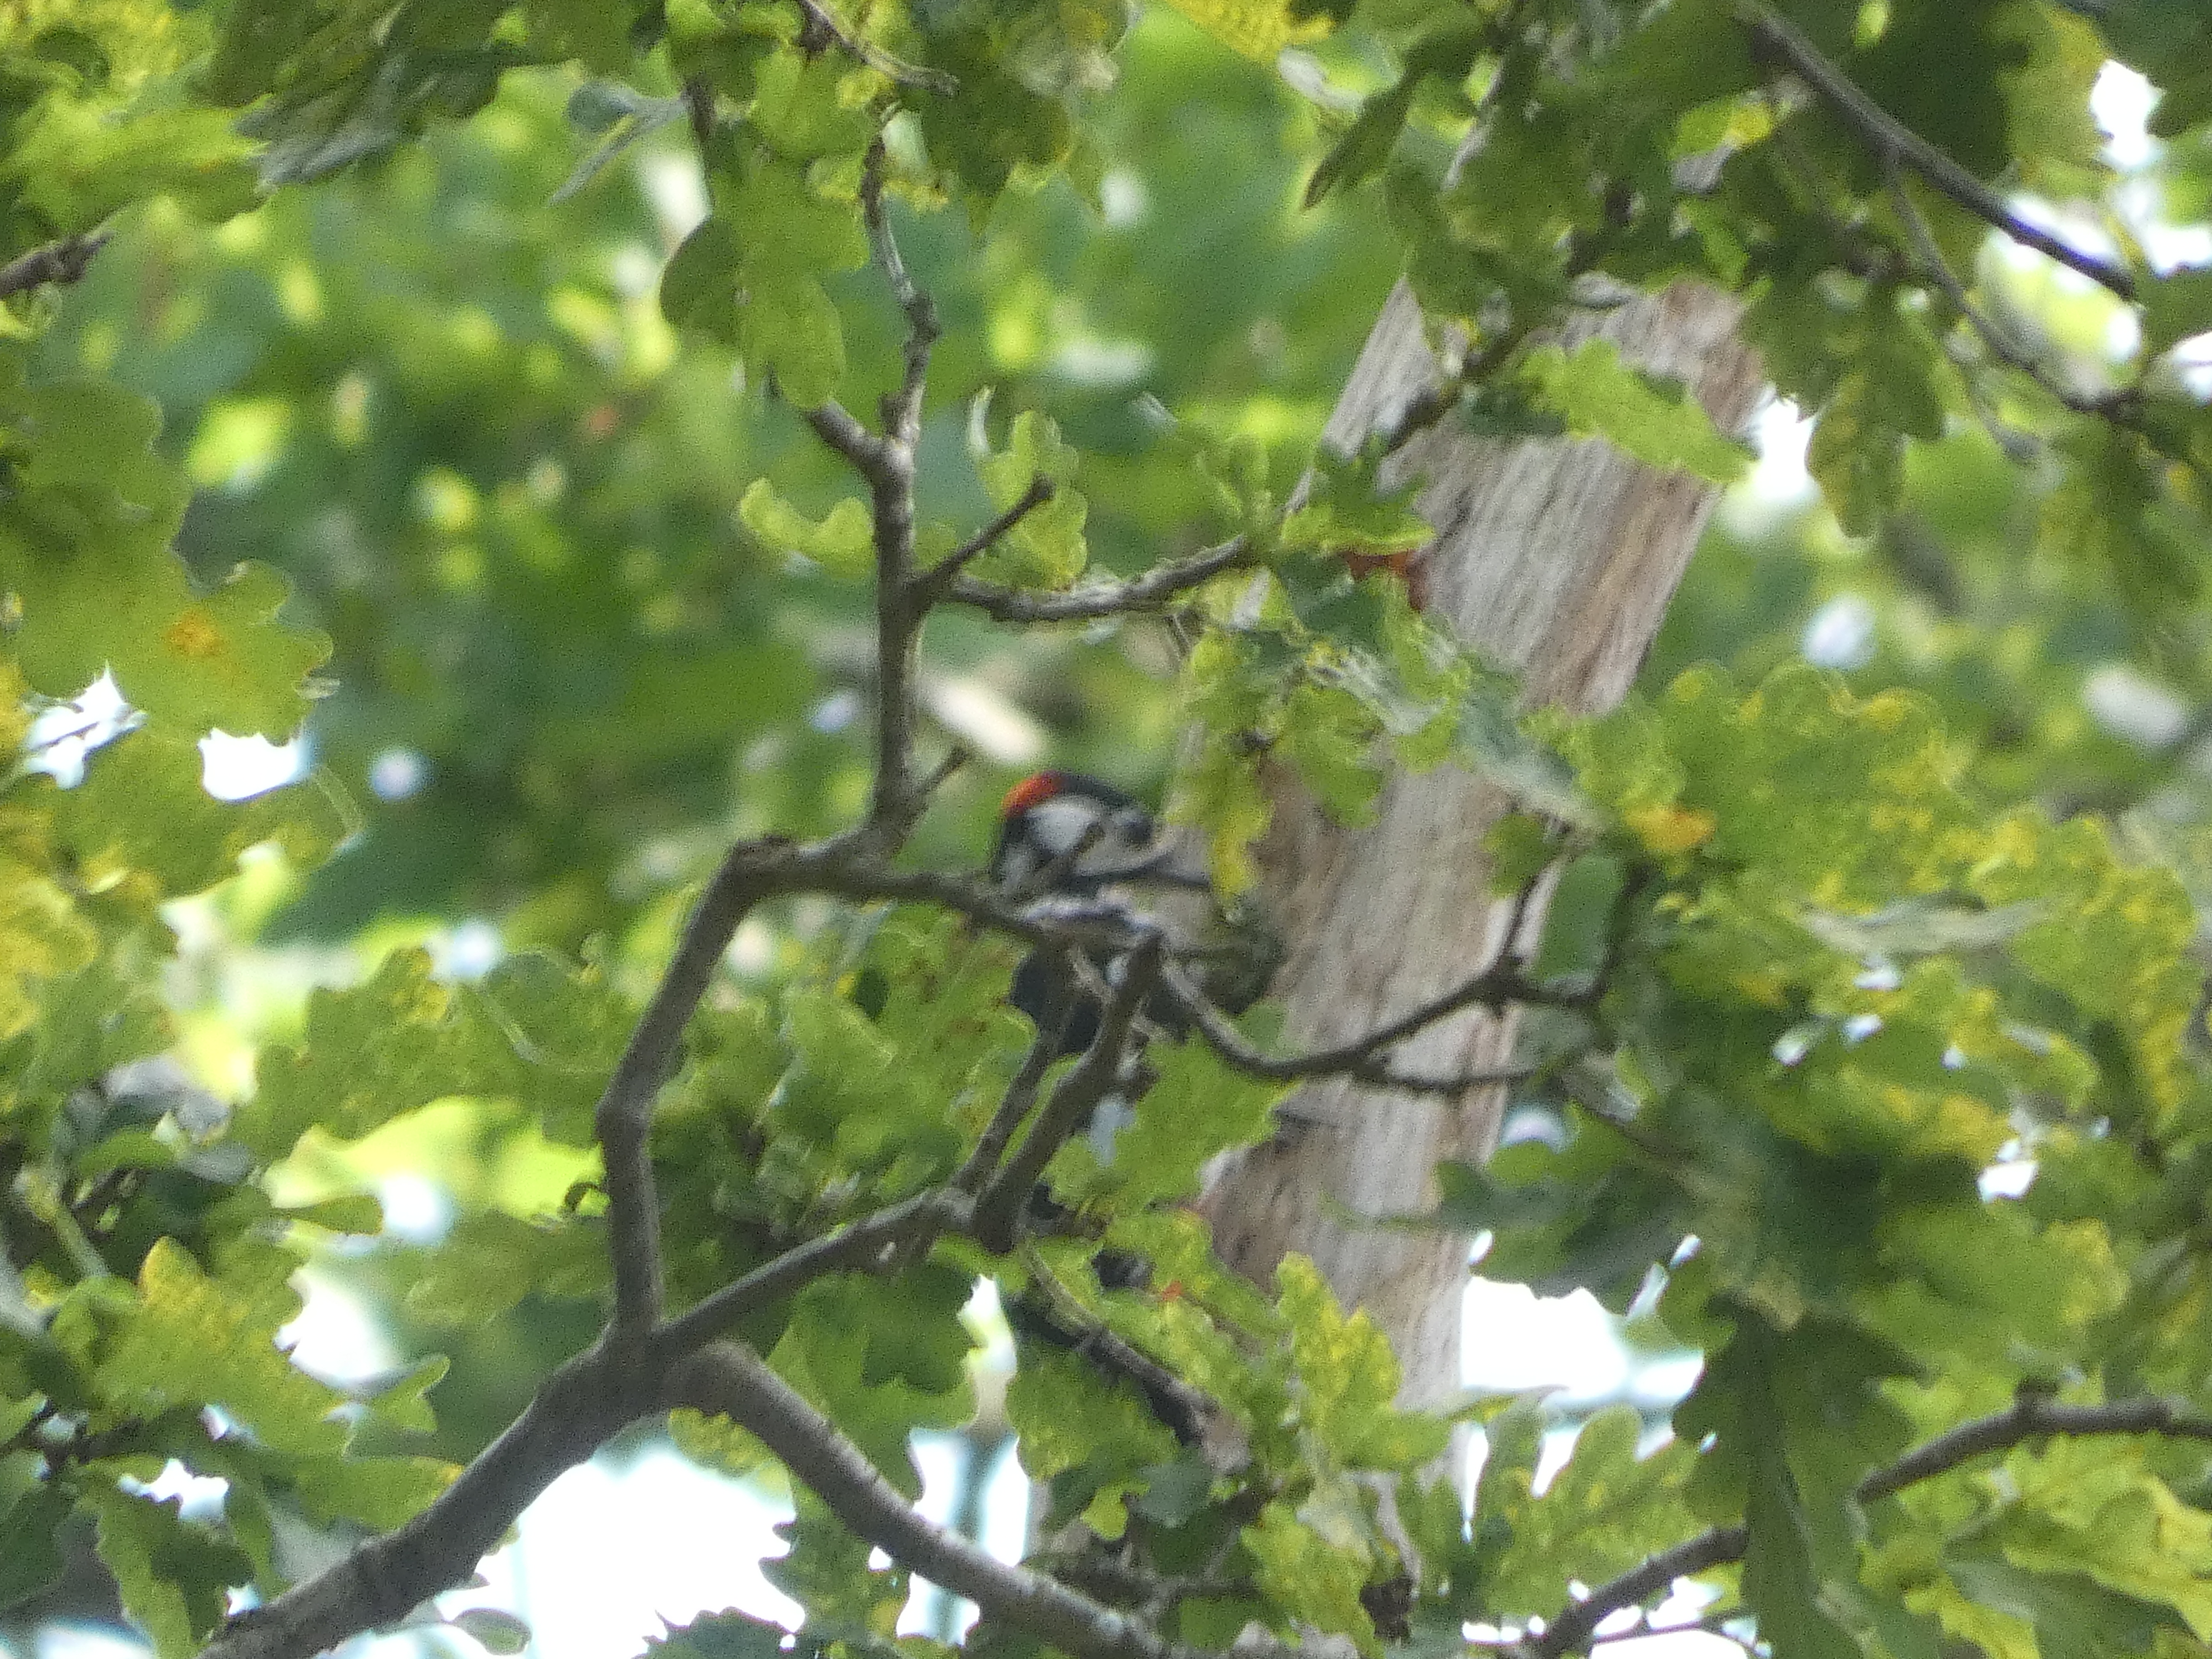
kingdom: Animalia
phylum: Chordata
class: Aves
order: Piciformes
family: Picidae
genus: Dendrocopos
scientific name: Dendrocopos major
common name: Stor flagspætte
